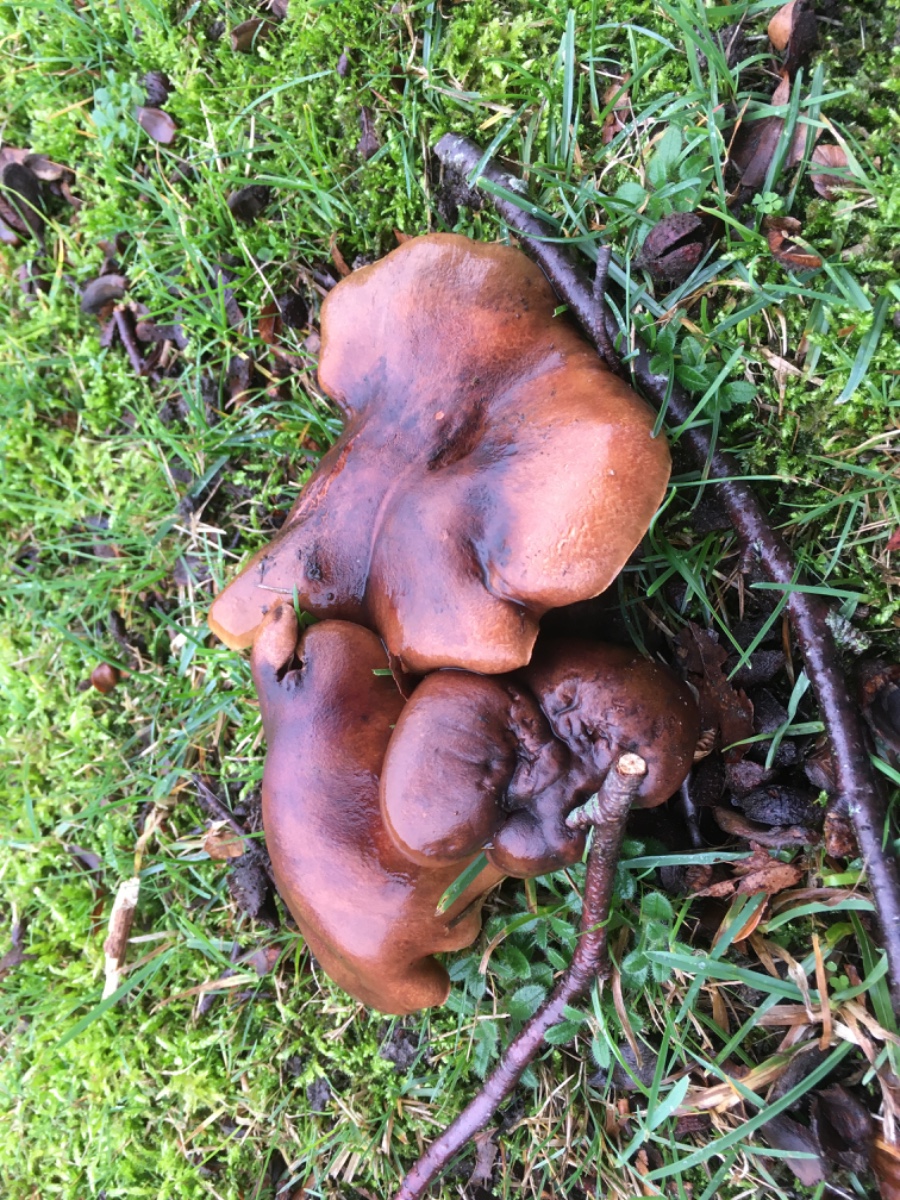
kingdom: Fungi
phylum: Basidiomycota
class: Agaricomycetes
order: Agaricales
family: Tricholomataceae
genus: Tricholoma
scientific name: Tricholoma ustale
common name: sveden ridderhat
